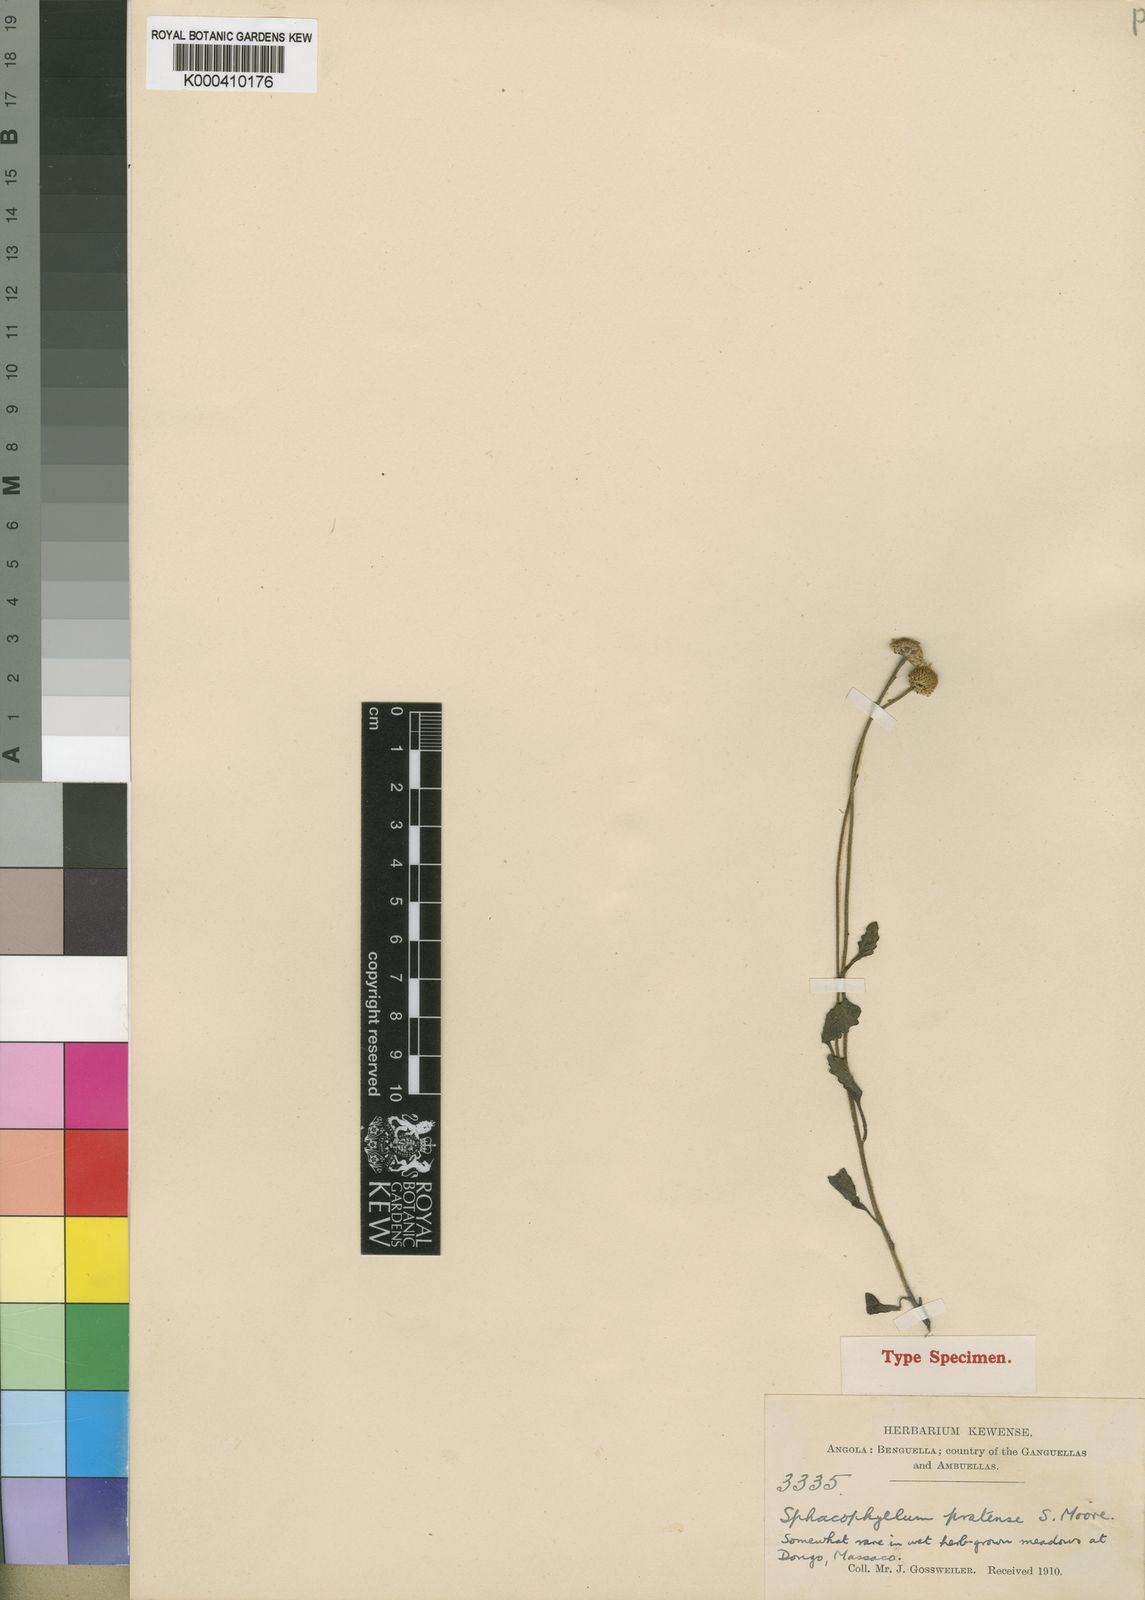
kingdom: Plantae
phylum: Tracheophyta
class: Magnoliopsida
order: Asterales
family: Asteraceae
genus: Anisopappus
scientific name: Anisopappus chinensis
